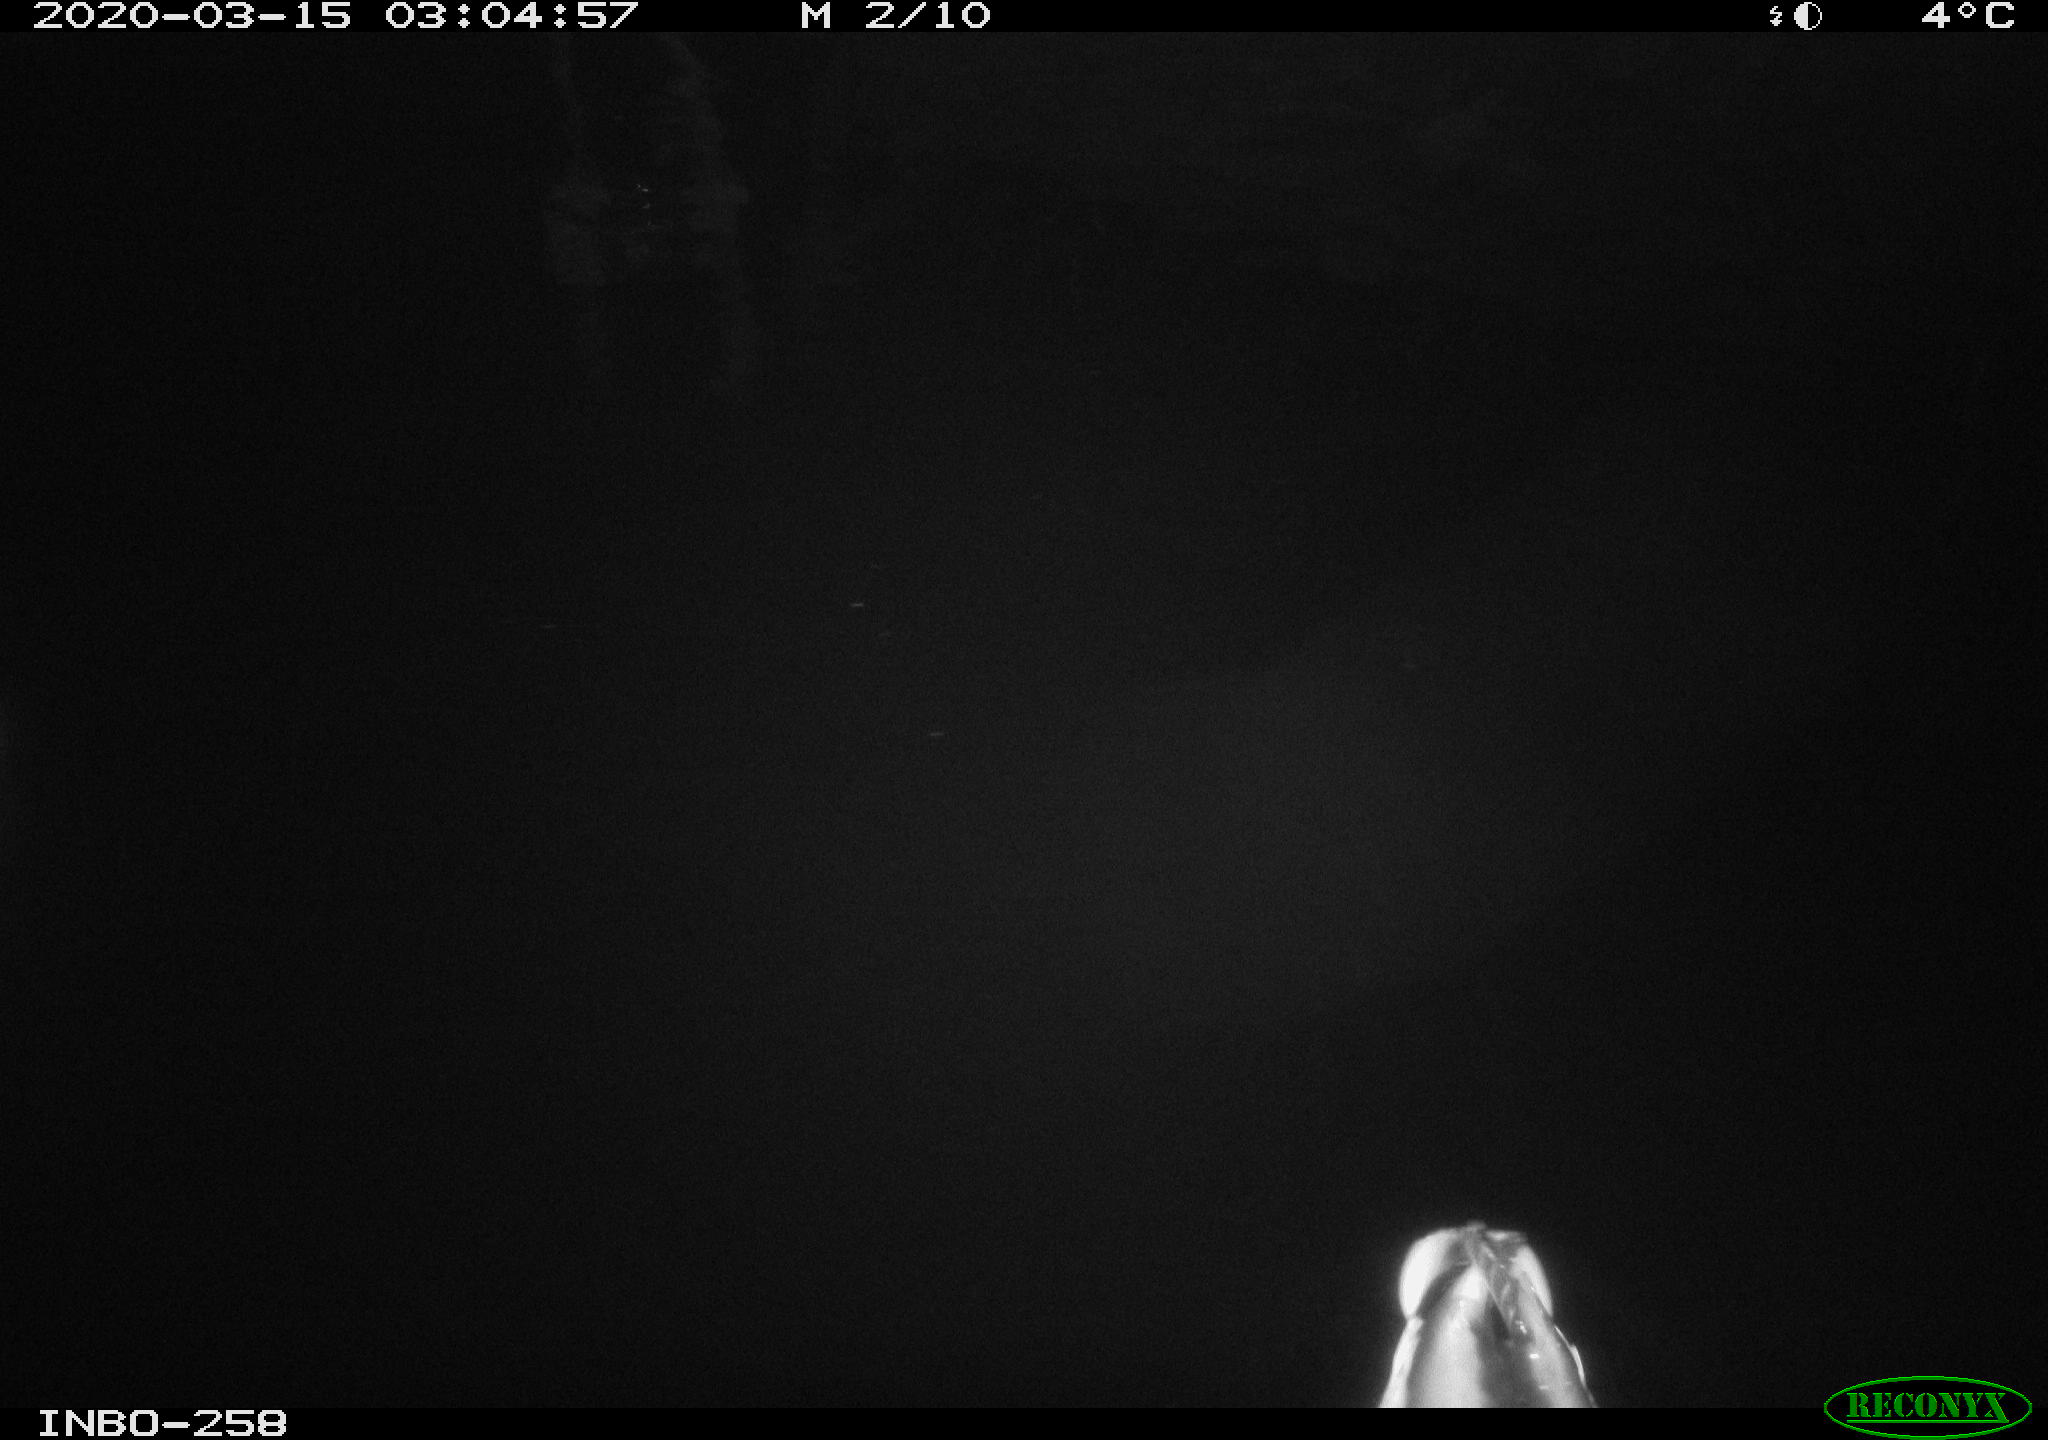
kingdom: Animalia
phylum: Chordata
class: Aves
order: Anseriformes
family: Anatidae
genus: Anas
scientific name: Anas platyrhynchos
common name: Mallard
